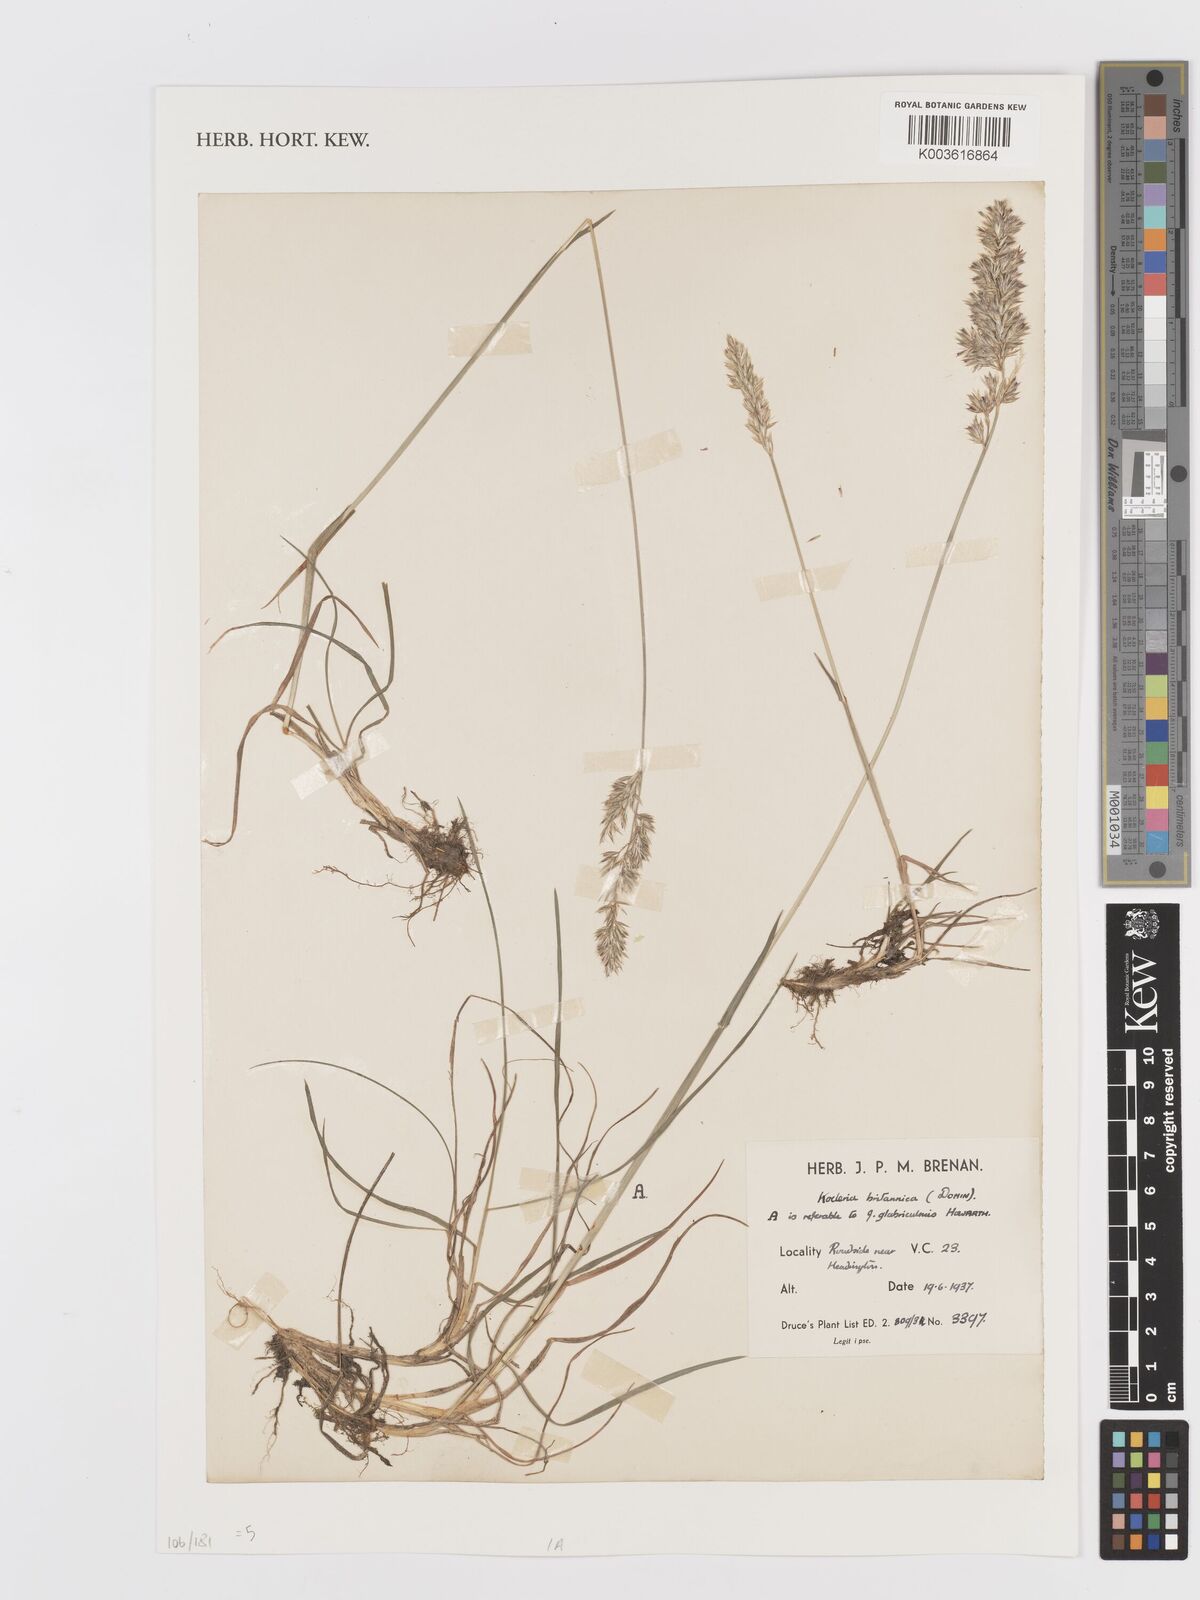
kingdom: Plantae
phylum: Tracheophyta
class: Liliopsida
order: Poales
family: Poaceae
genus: Koeleria
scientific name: Koeleria macrantha
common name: Crested hair-grass
